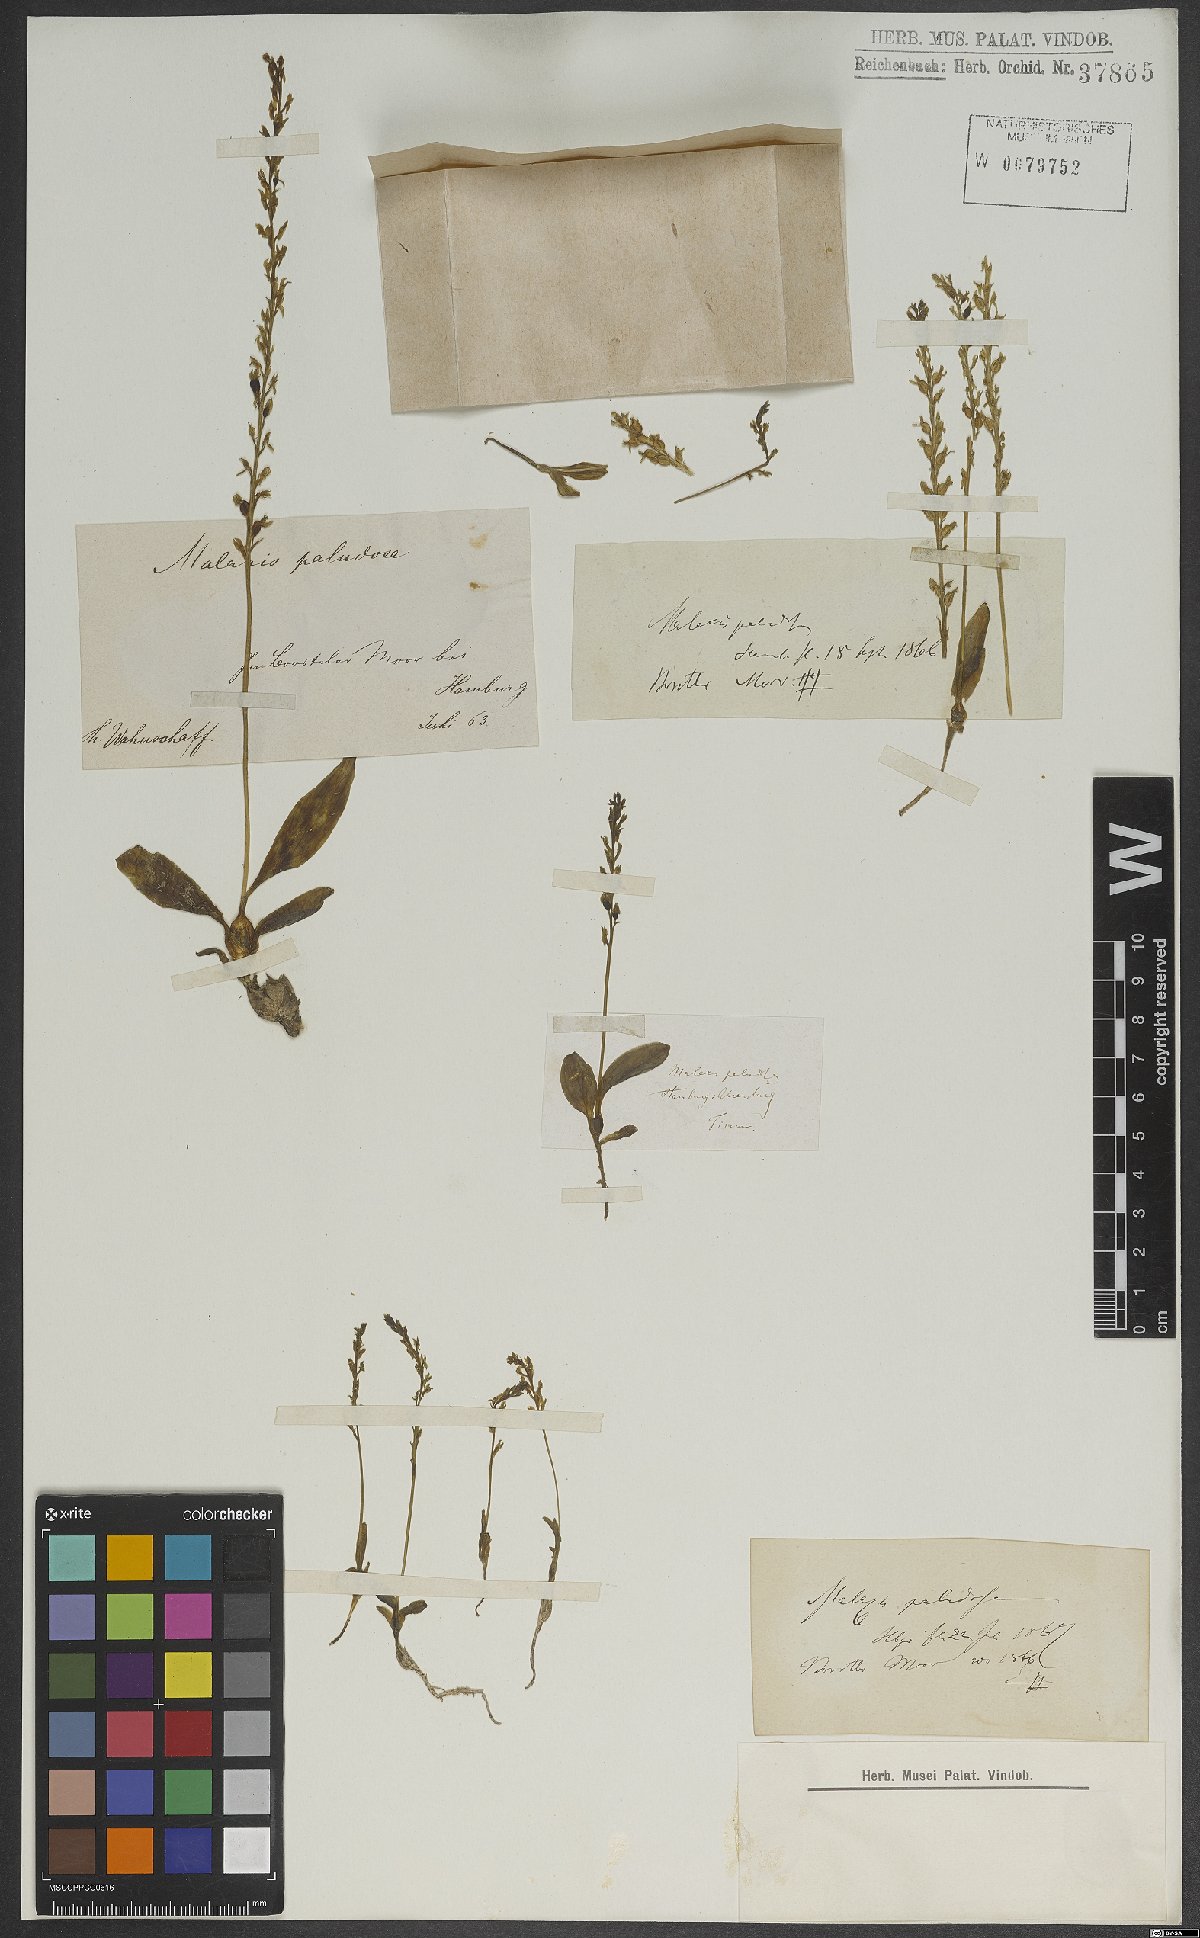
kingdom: Plantae
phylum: Tracheophyta
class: Liliopsida
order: Asparagales
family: Orchidaceae
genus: Hammarbya
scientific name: Hammarbya paludosa
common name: Bog orchid
